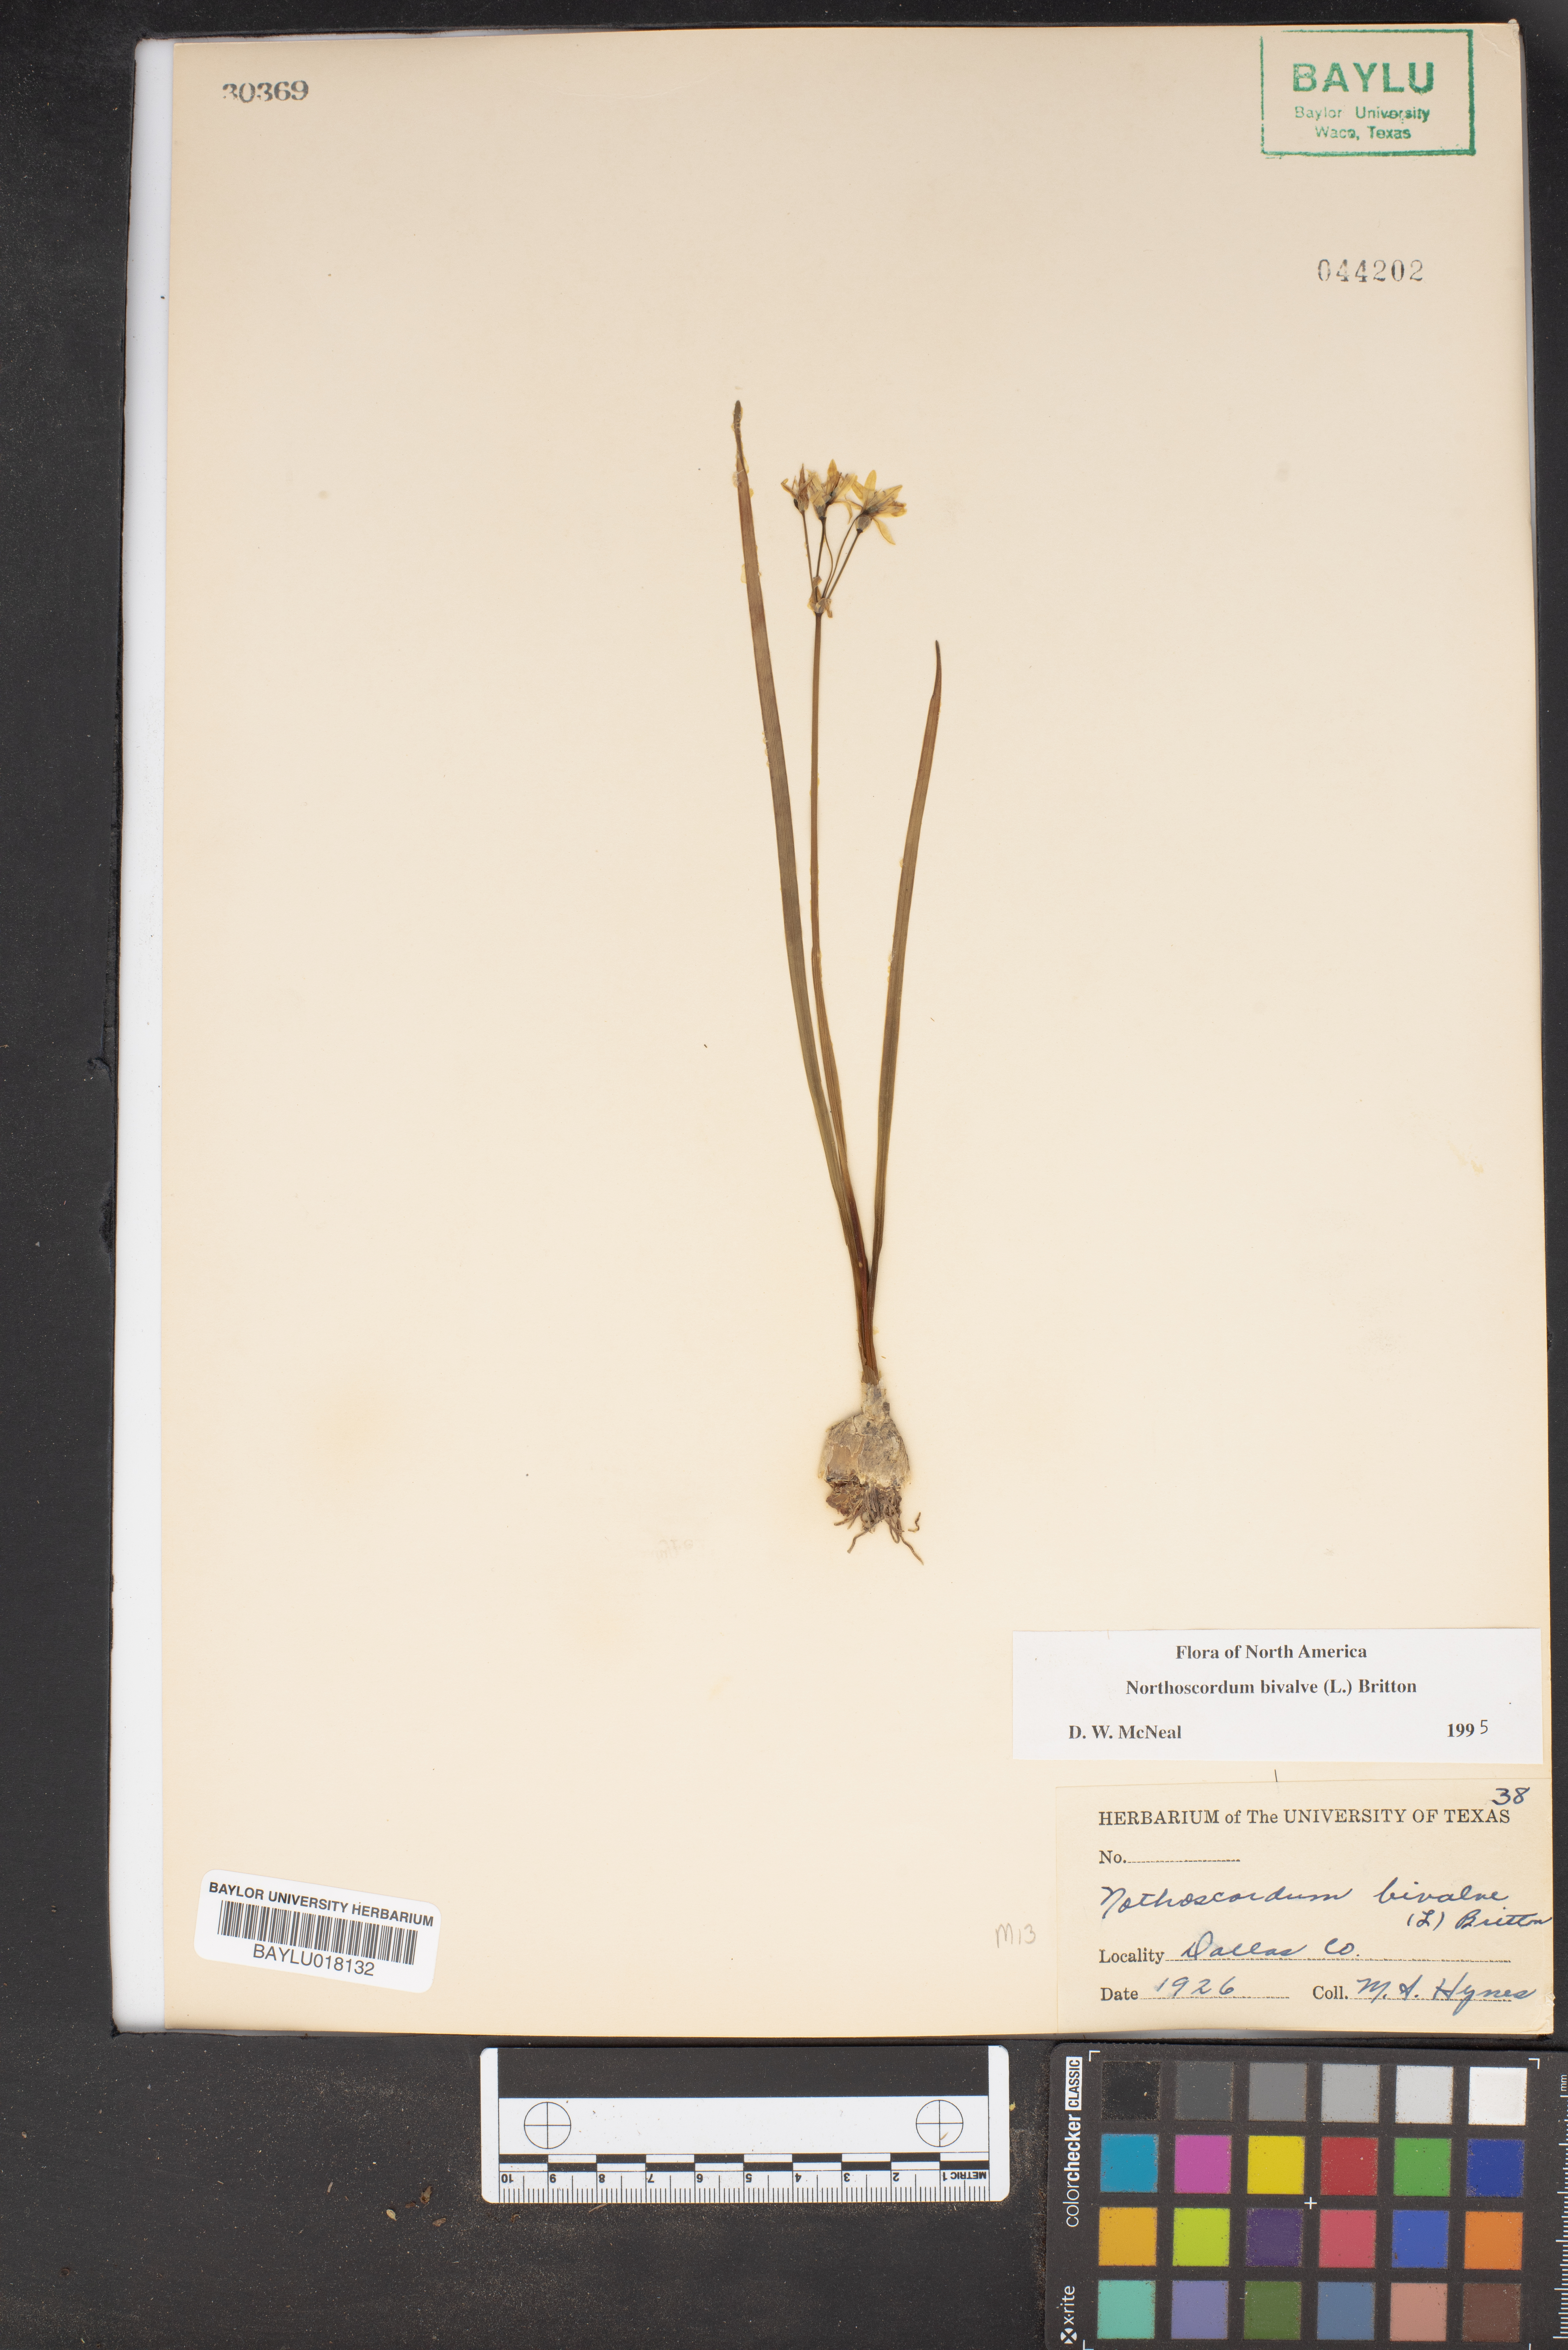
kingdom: Plantae
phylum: Tracheophyta
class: Liliopsida
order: Asparagales
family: Amaryllidaceae
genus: Nothoscordum
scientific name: Nothoscordum bivalve
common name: Crow-poison
